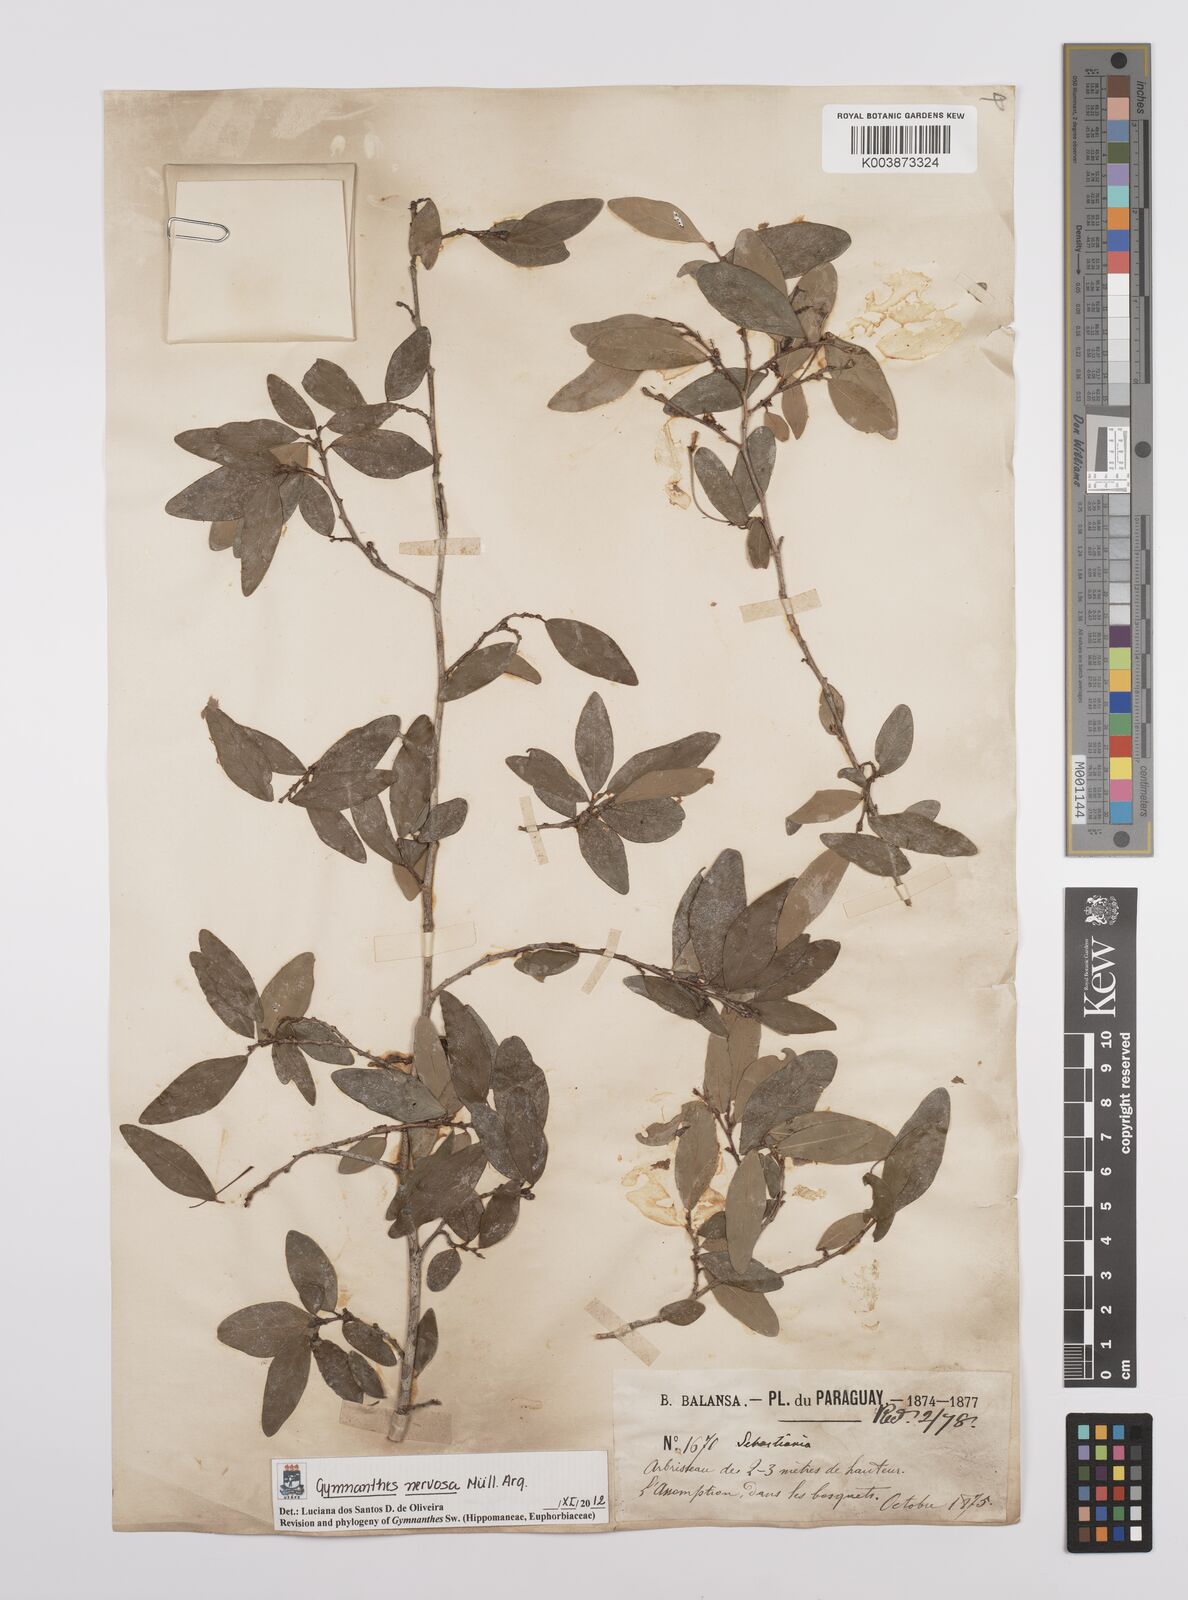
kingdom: Plantae
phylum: Tracheophyta
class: Magnoliopsida
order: Malpighiales
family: Euphorbiaceae
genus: Gymnanthes
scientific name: Gymnanthes nervosa
